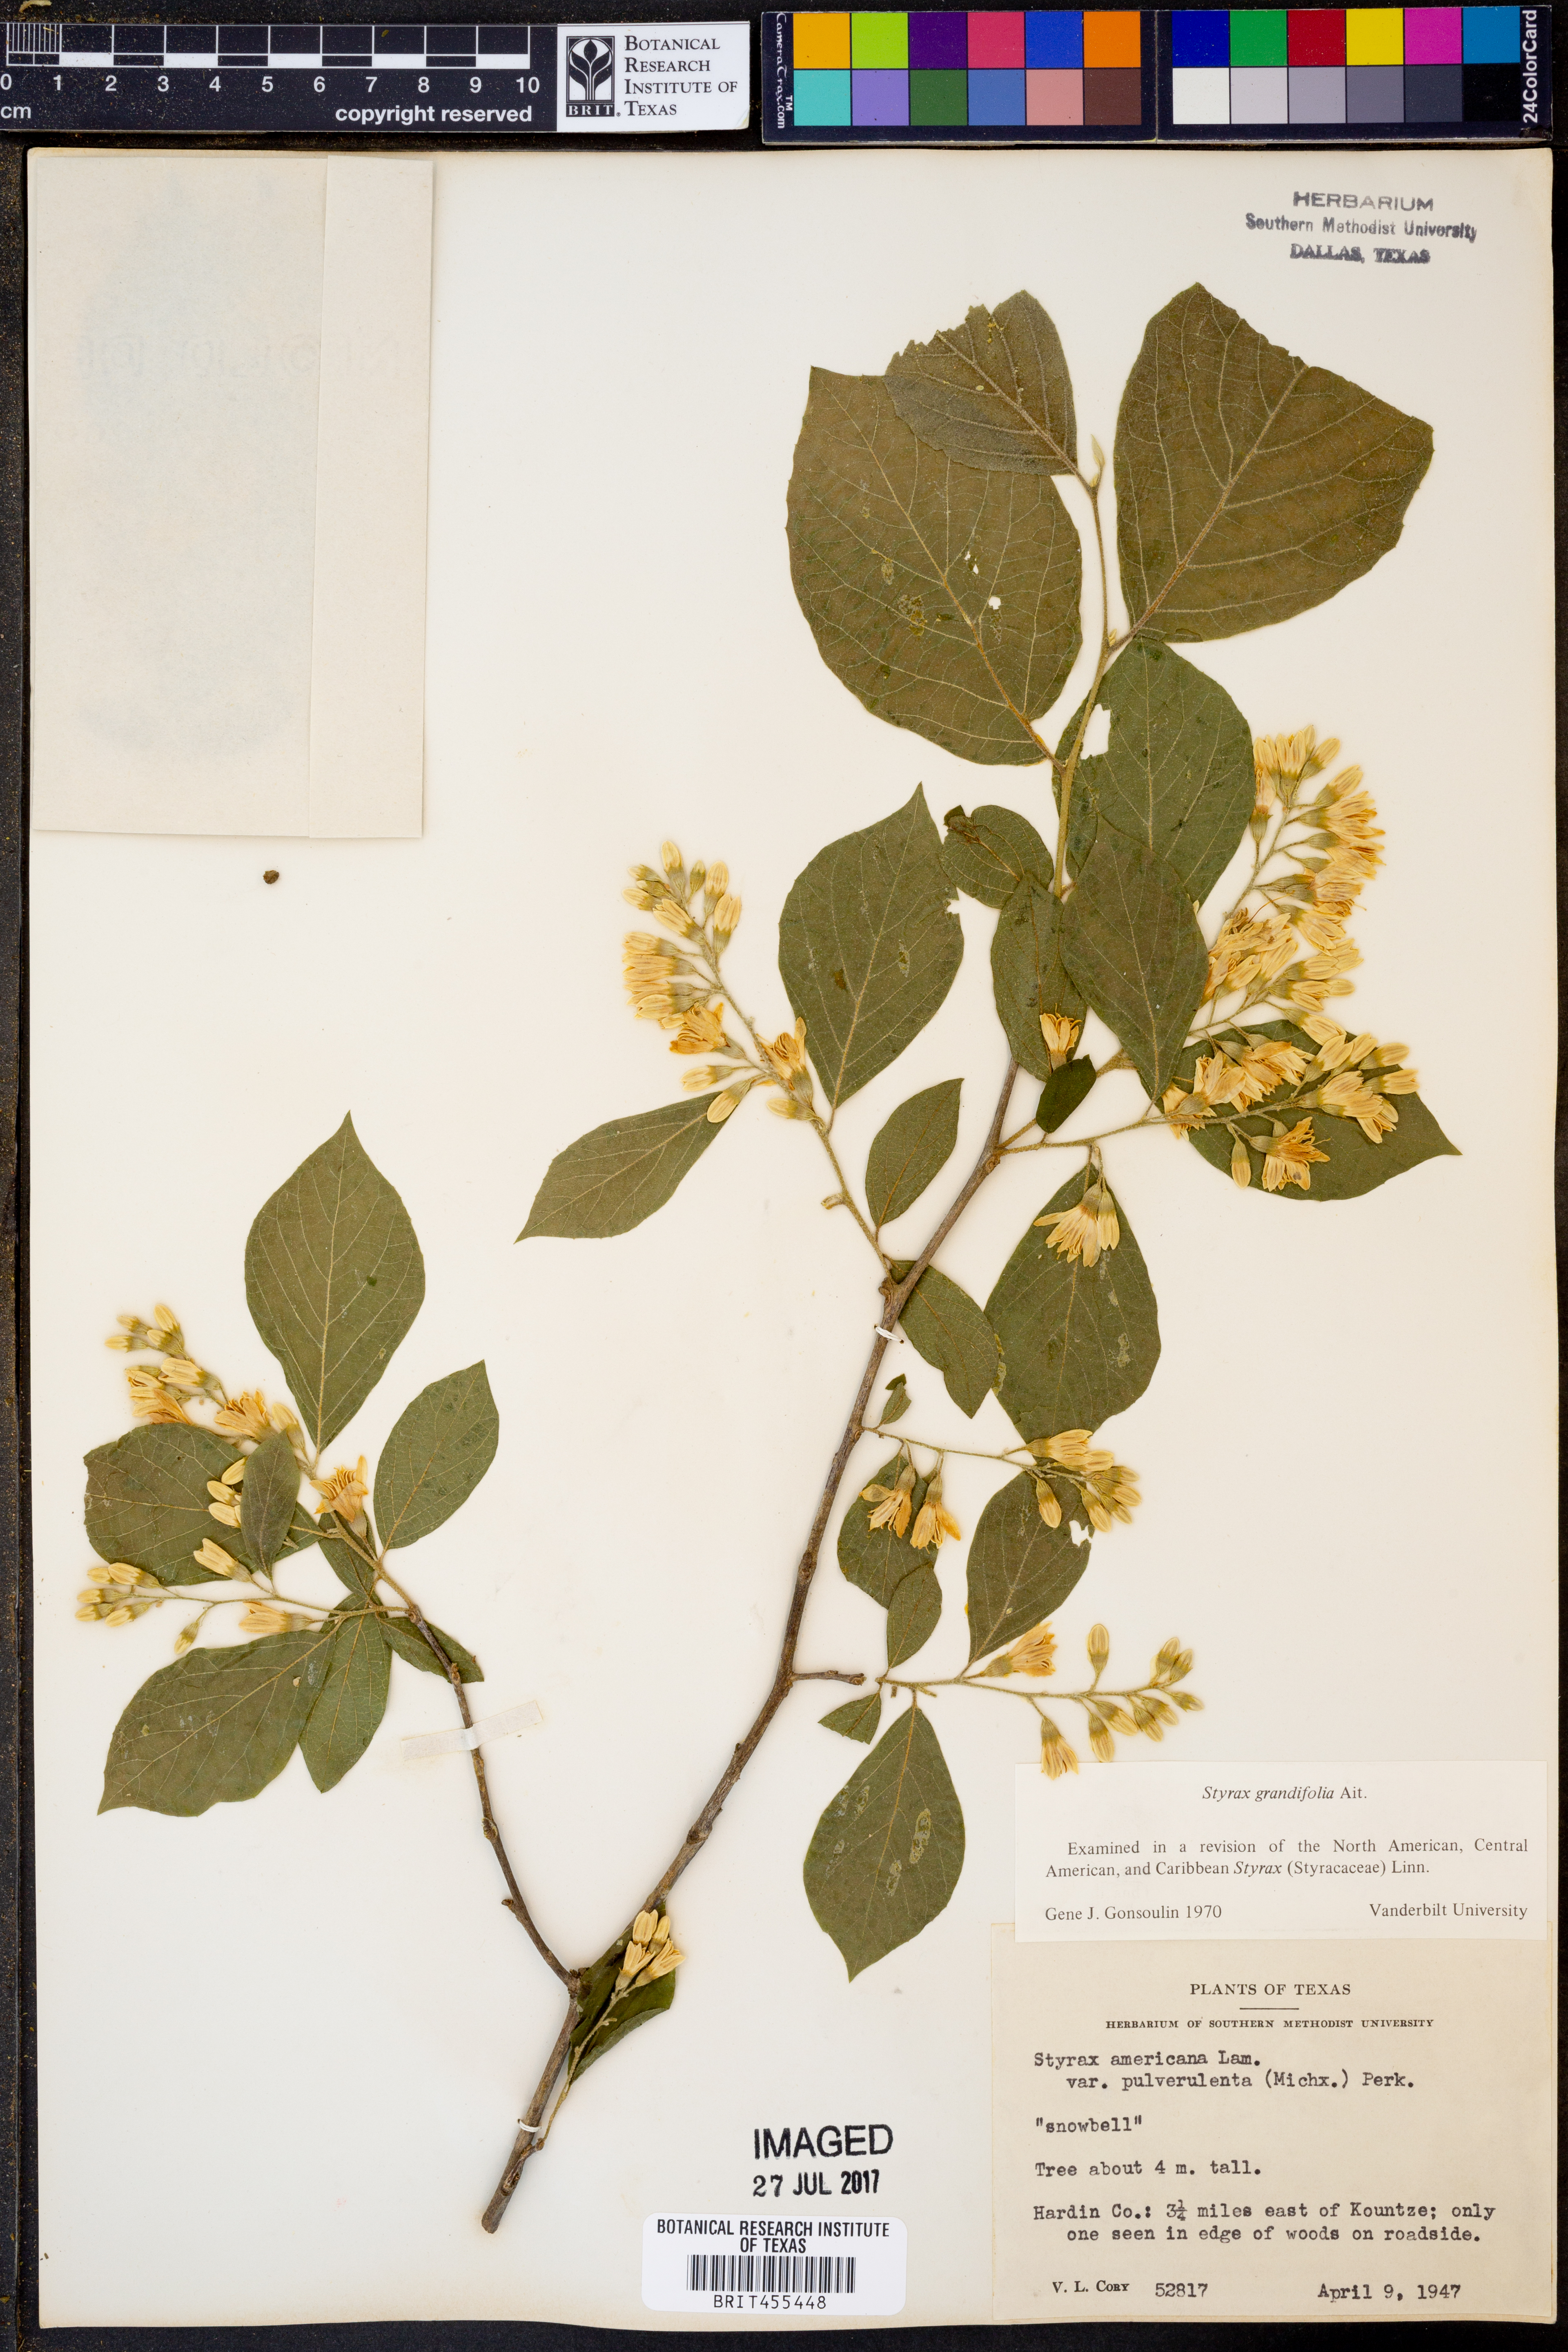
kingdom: Plantae
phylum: Tracheophyta
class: Magnoliopsida
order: Ericales
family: Styracaceae
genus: Styrax
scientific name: Styrax grandifolius
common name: Big-leaf snowbell
